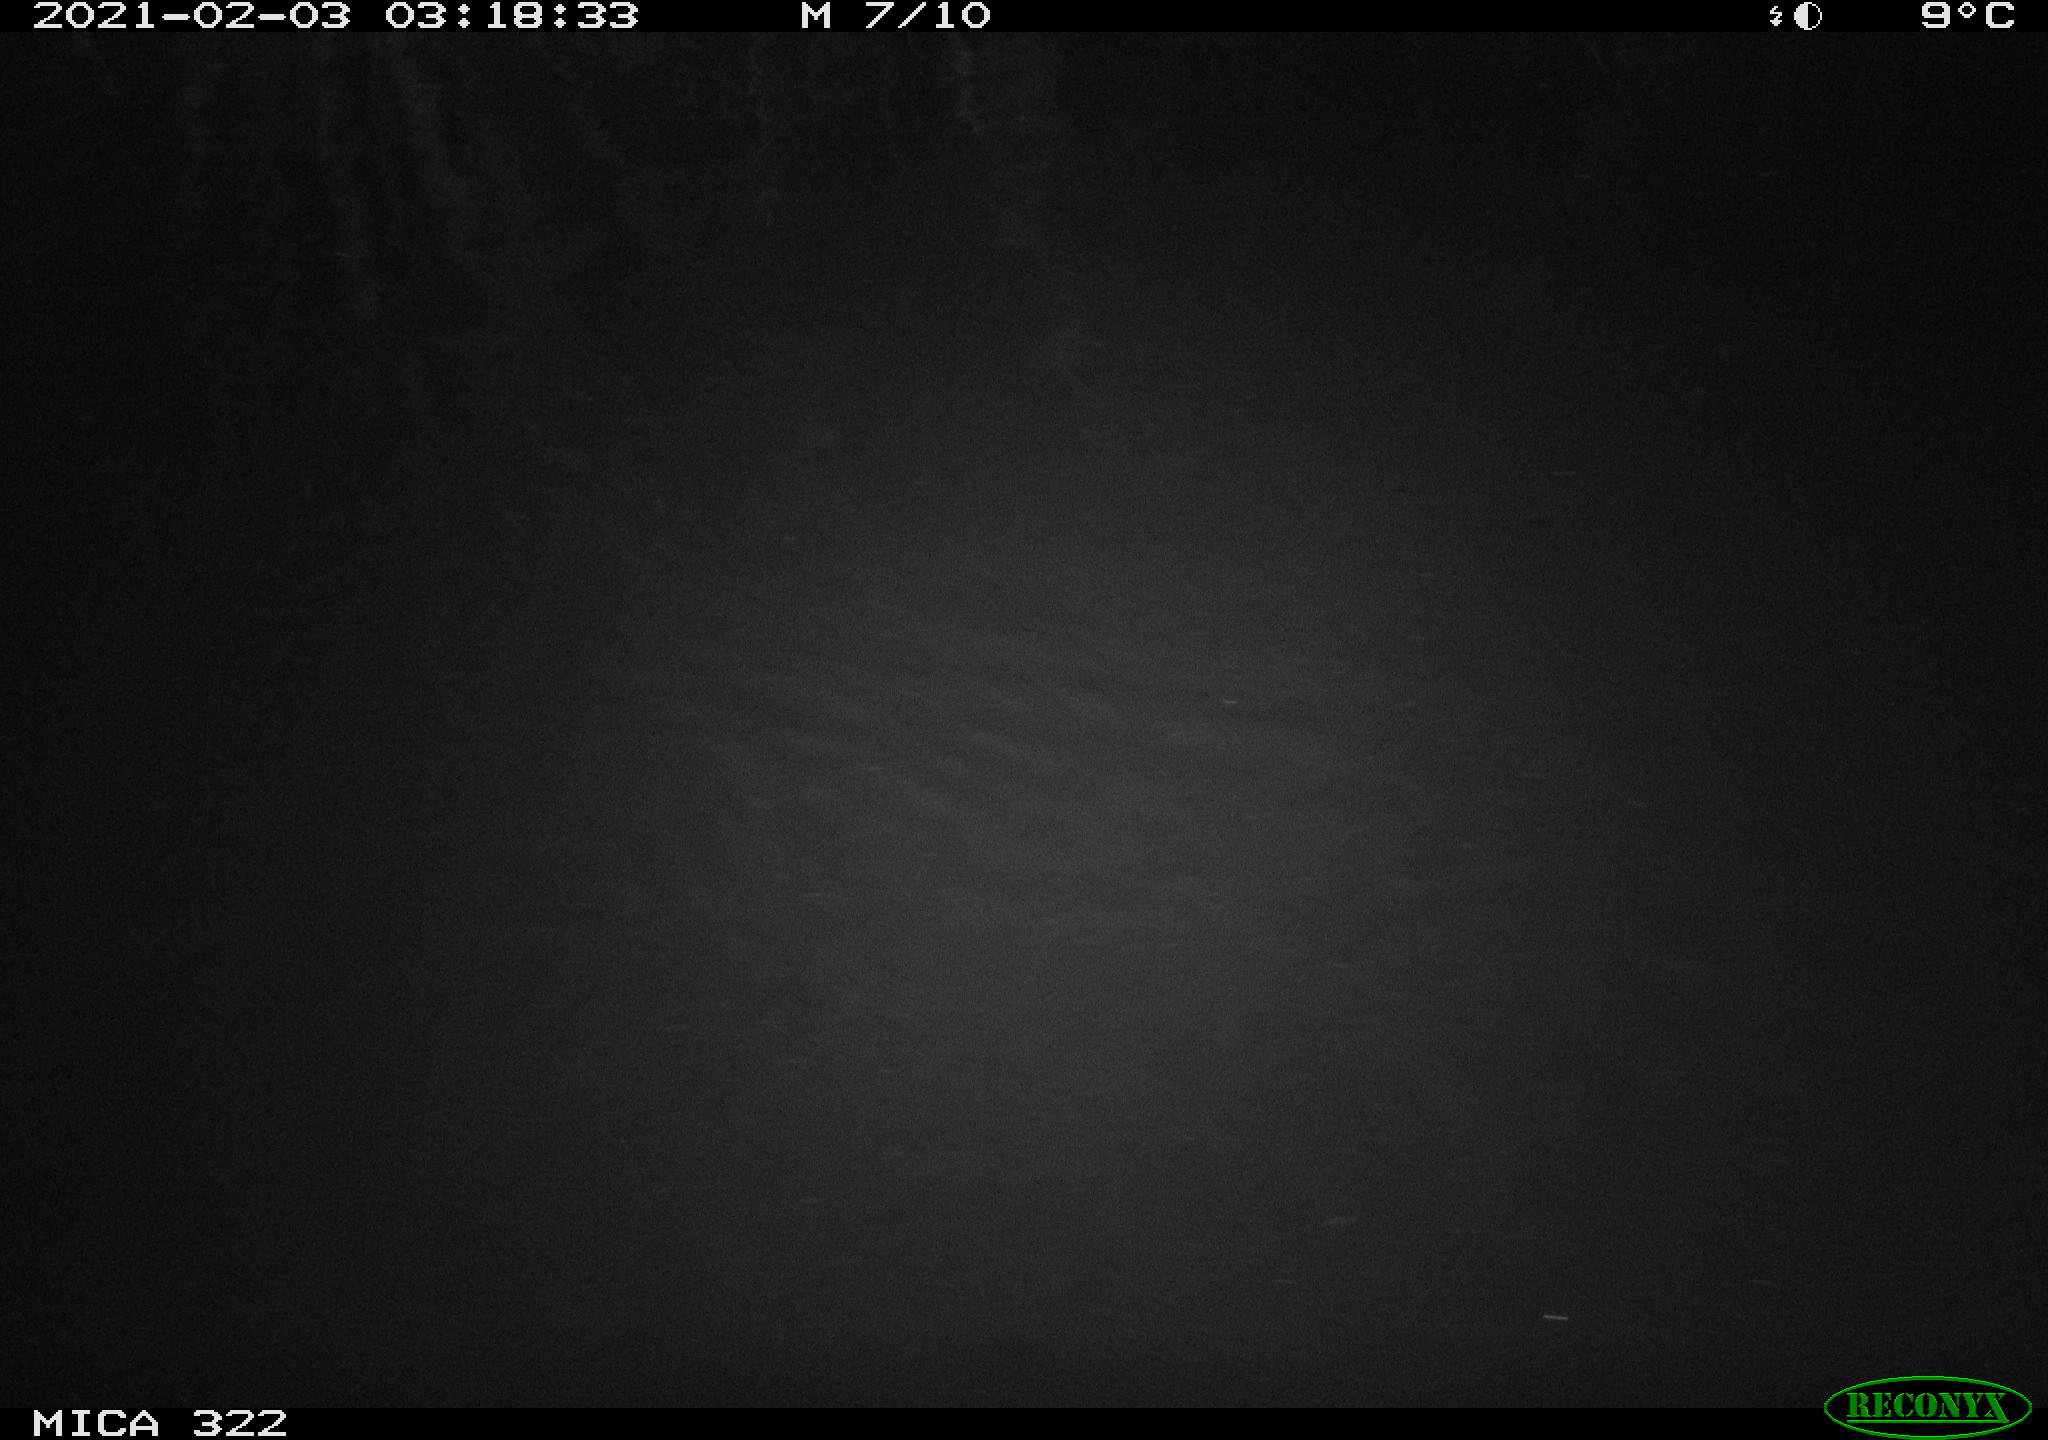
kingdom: Animalia
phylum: Chordata
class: Mammalia
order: Rodentia
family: Muridae
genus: Rattus
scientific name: Rattus norvegicus
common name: Brown rat
